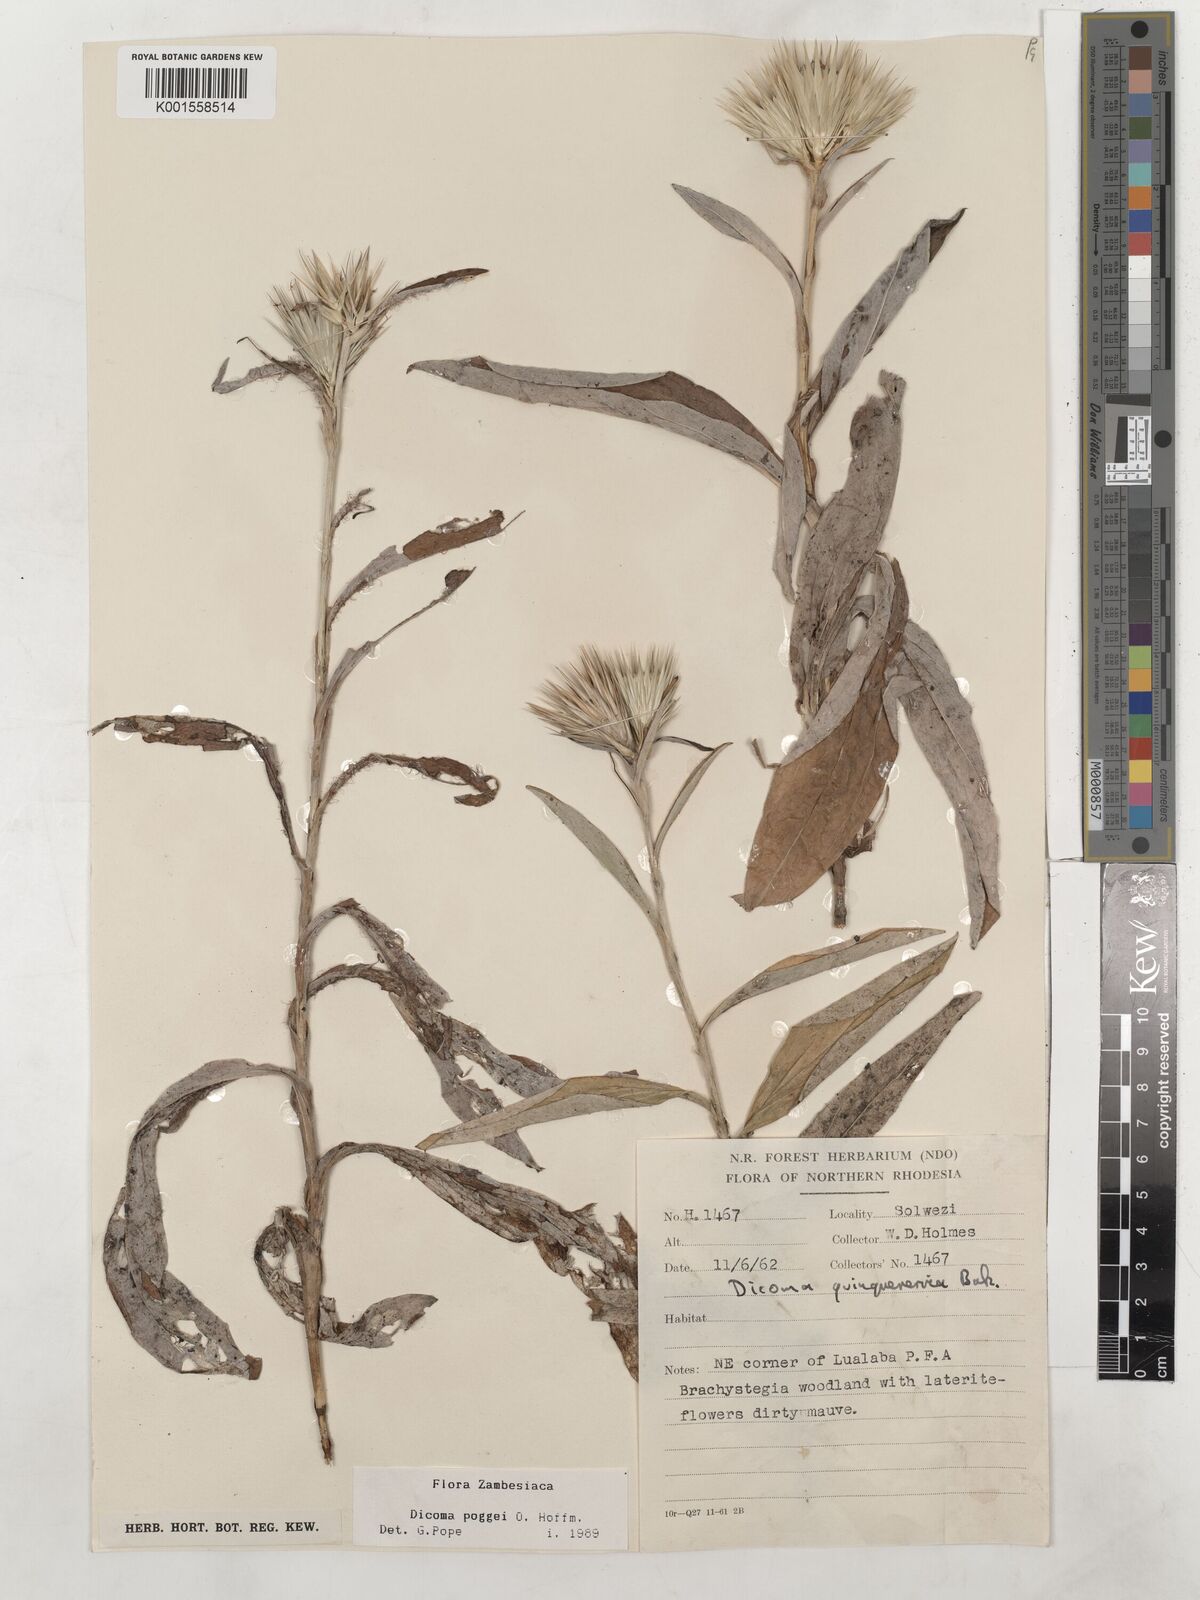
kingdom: Plantae
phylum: Tracheophyta
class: Magnoliopsida
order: Asterales
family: Asteraceae
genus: Macledium
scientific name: Macledium poggei
